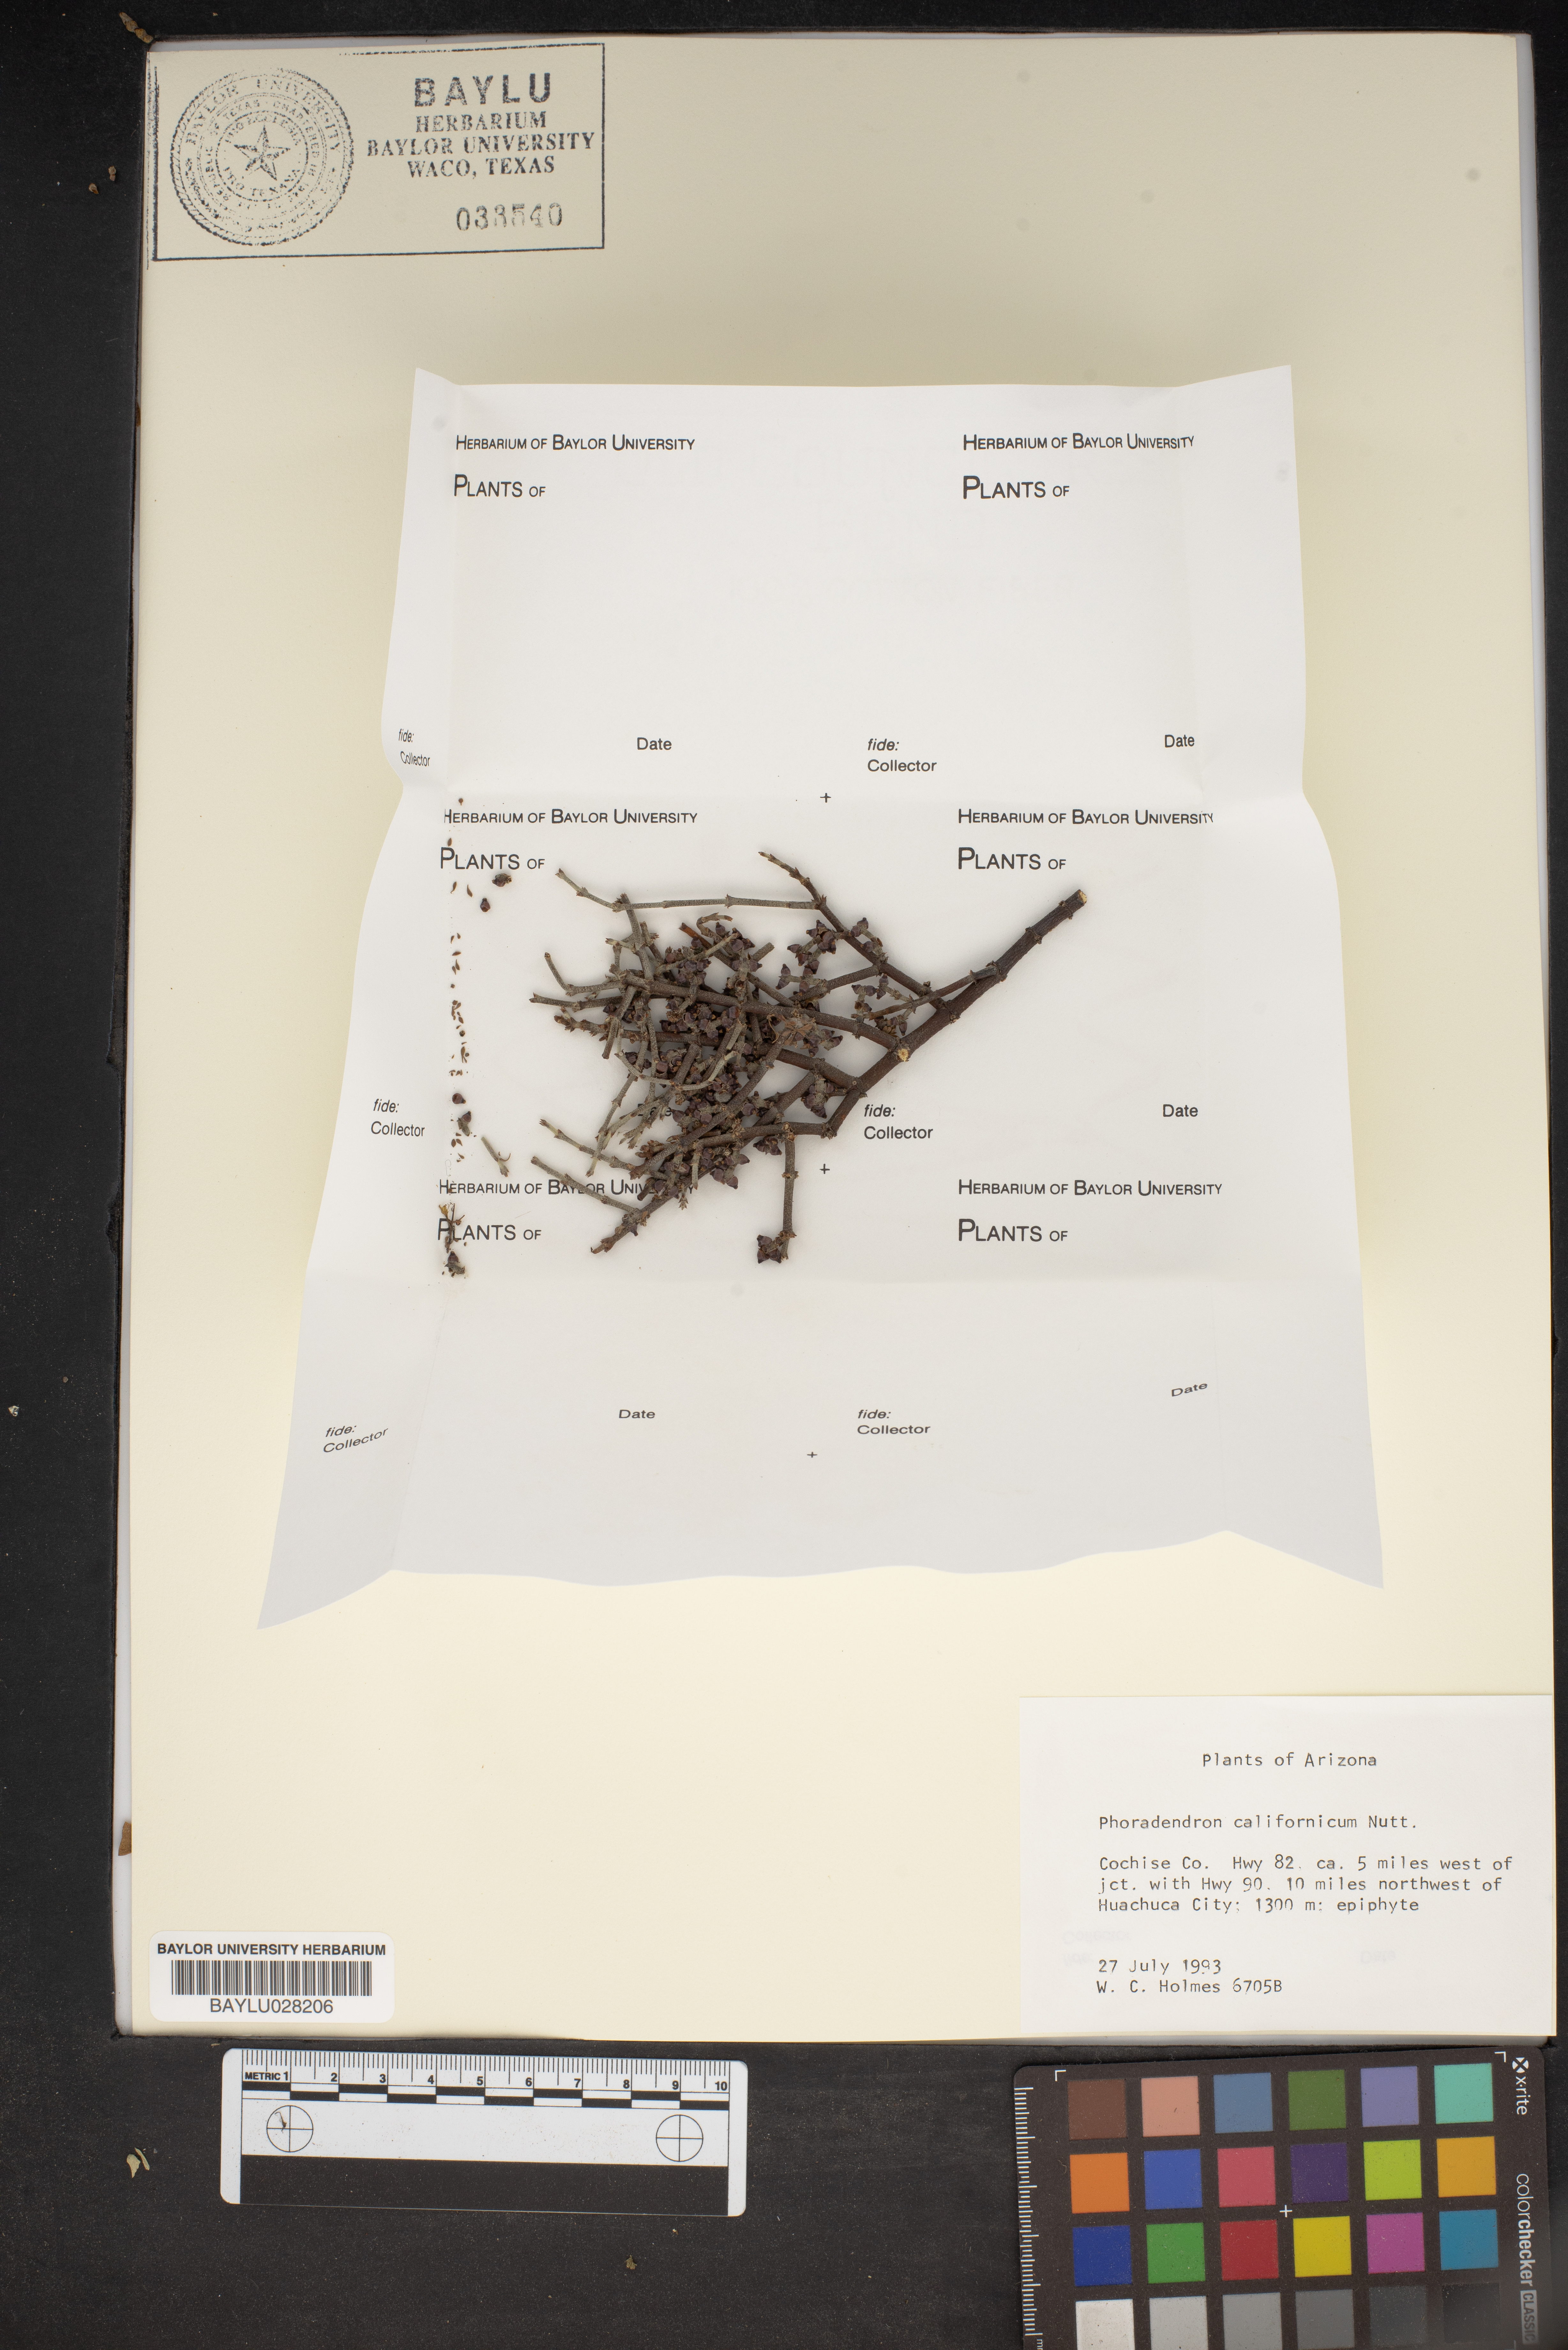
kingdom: Plantae
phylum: Tracheophyta
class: Magnoliopsida
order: Santalales
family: Viscaceae
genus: Phoradendron
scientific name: Phoradendron californicum
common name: Acacia mistletoe
